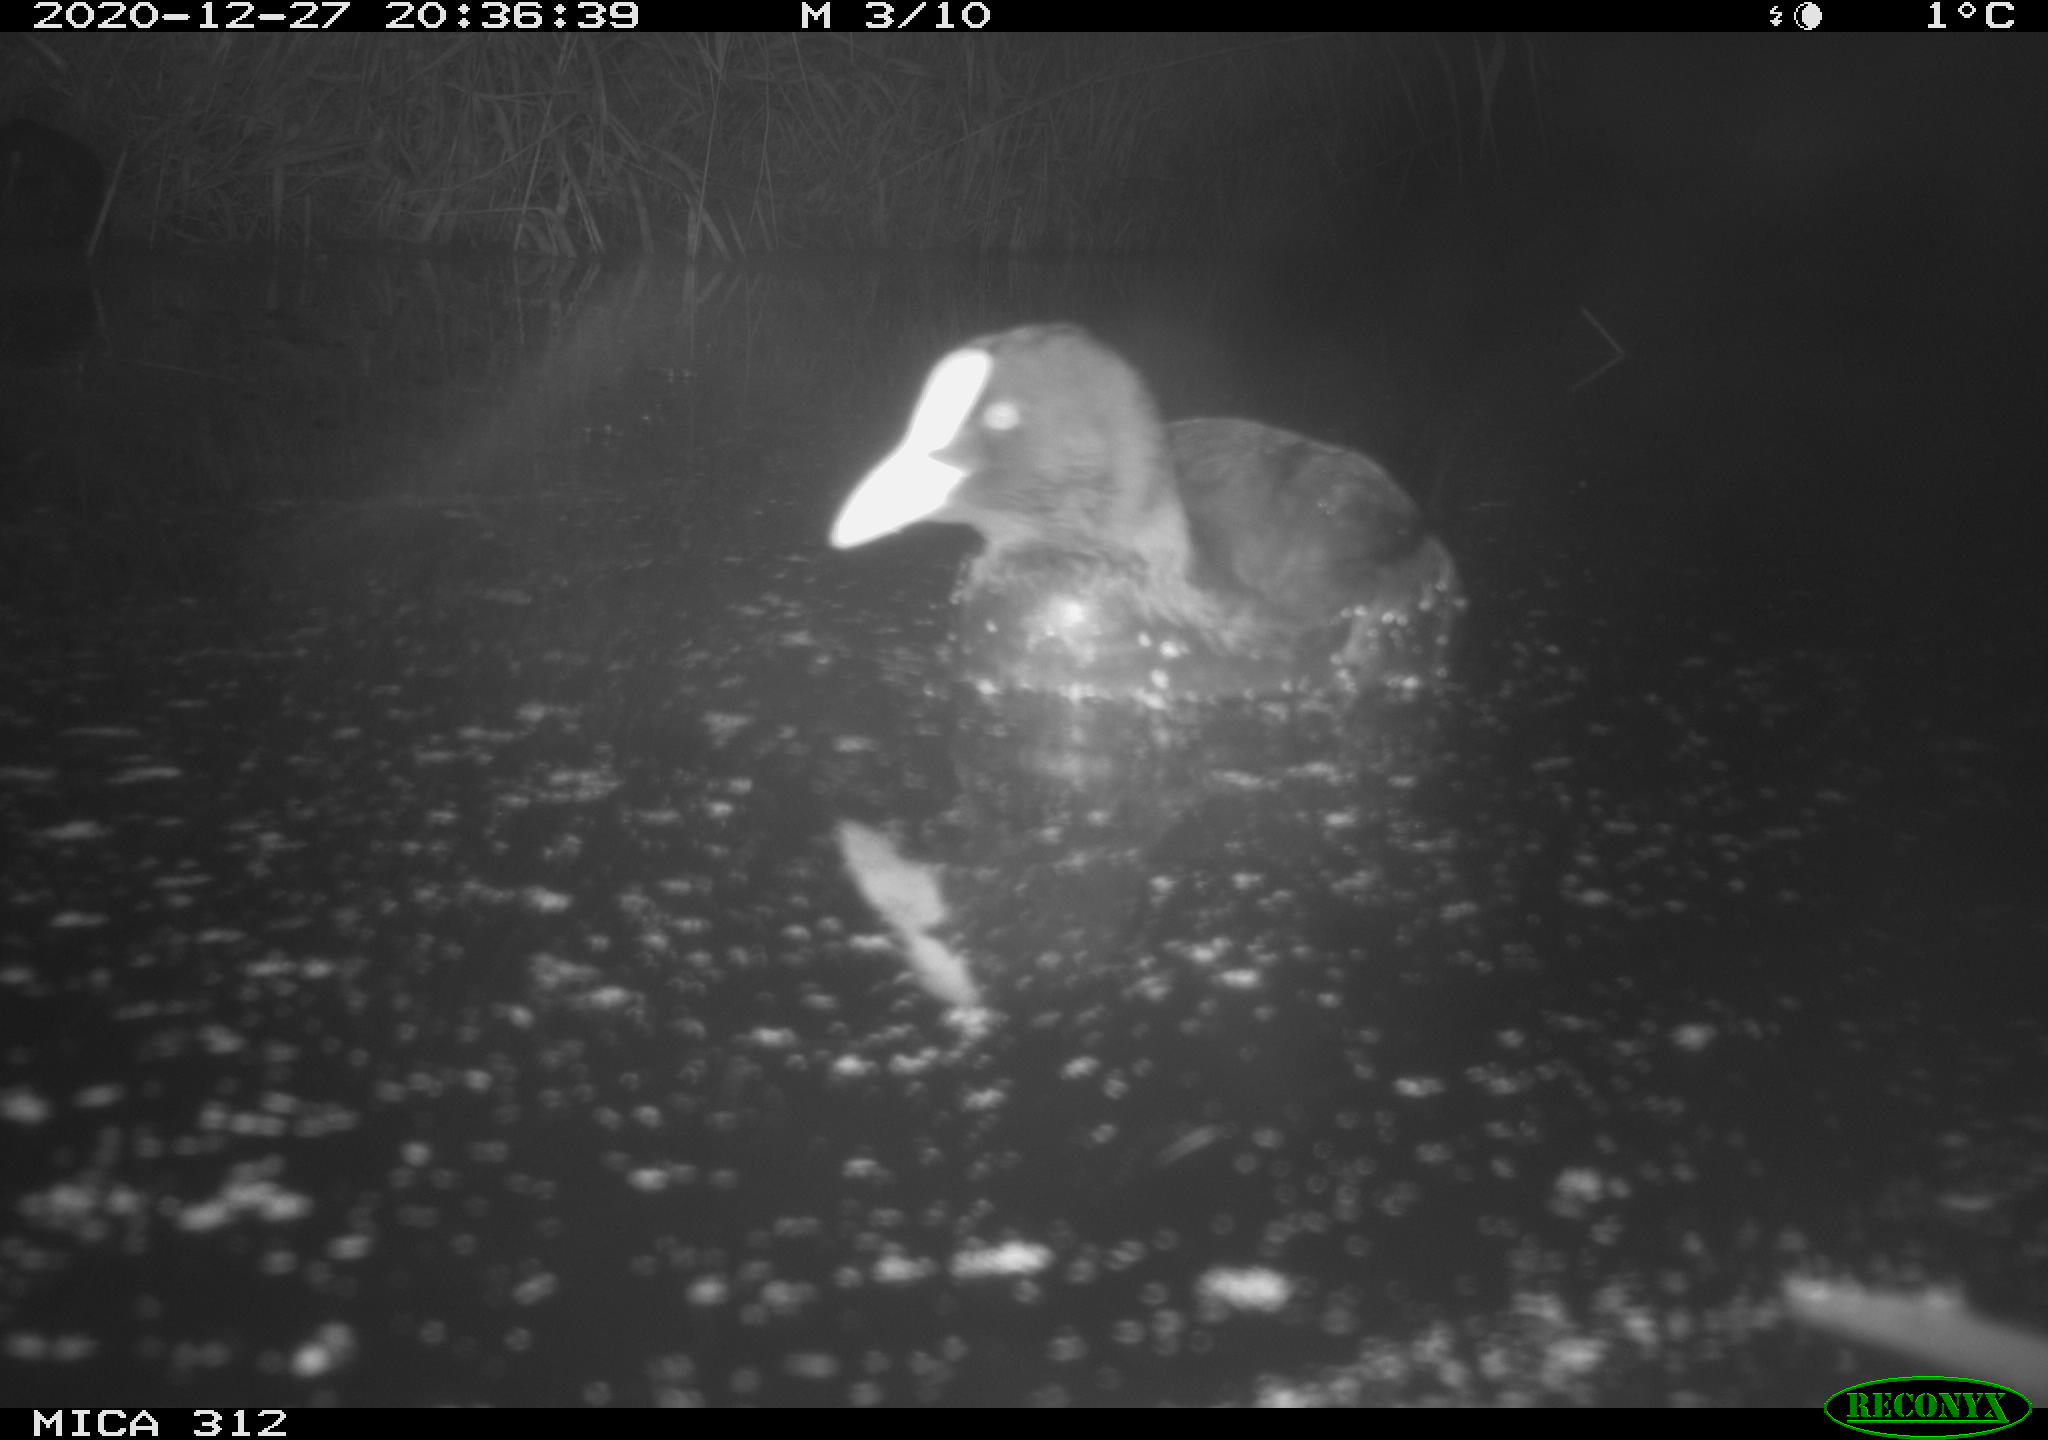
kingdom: Animalia
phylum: Chordata
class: Aves
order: Gruiformes
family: Rallidae
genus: Fulica
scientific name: Fulica atra
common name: Eurasian coot
